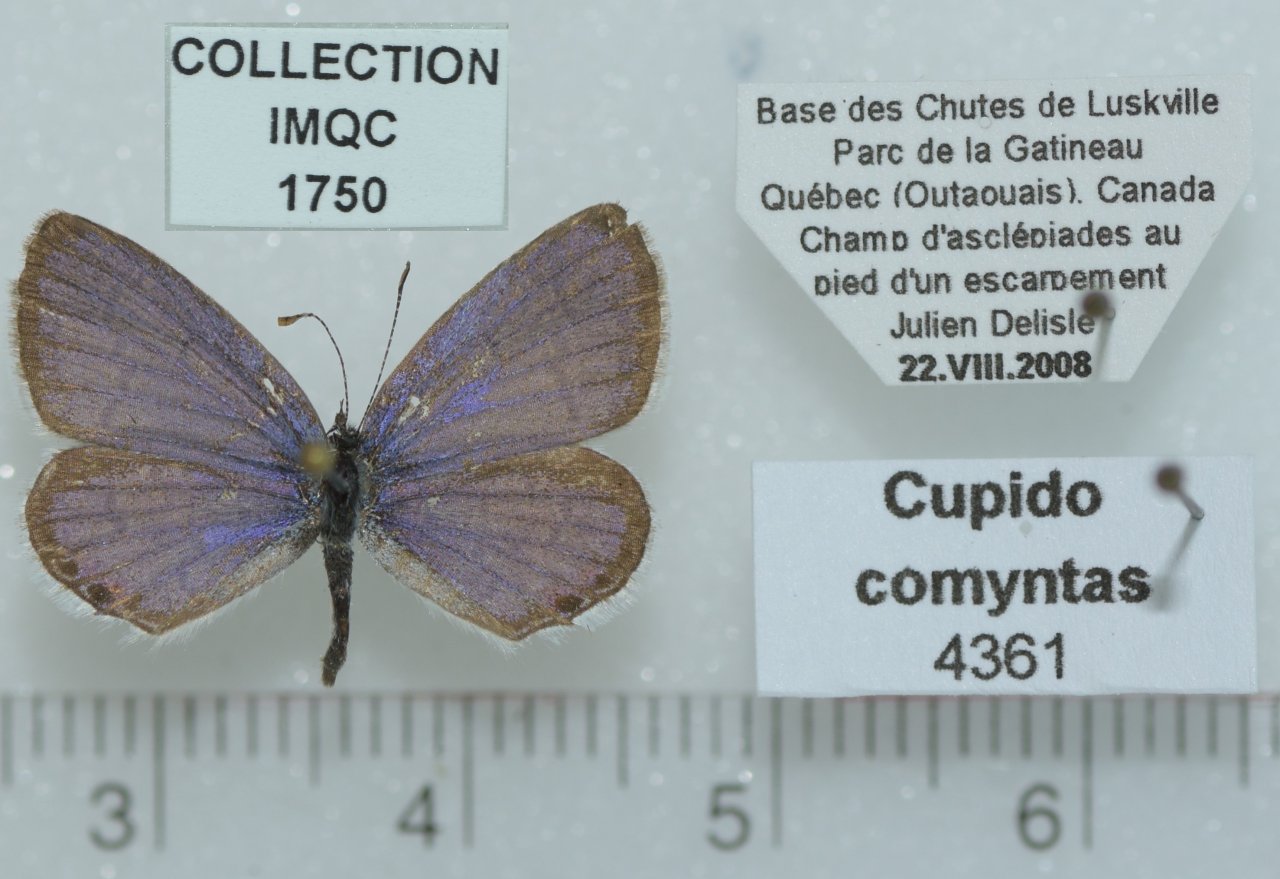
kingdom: Animalia
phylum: Arthropoda
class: Insecta
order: Lepidoptera
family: Lycaenidae
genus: Elkalyce
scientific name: Elkalyce comyntas
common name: Eastern Tailed-Blue
